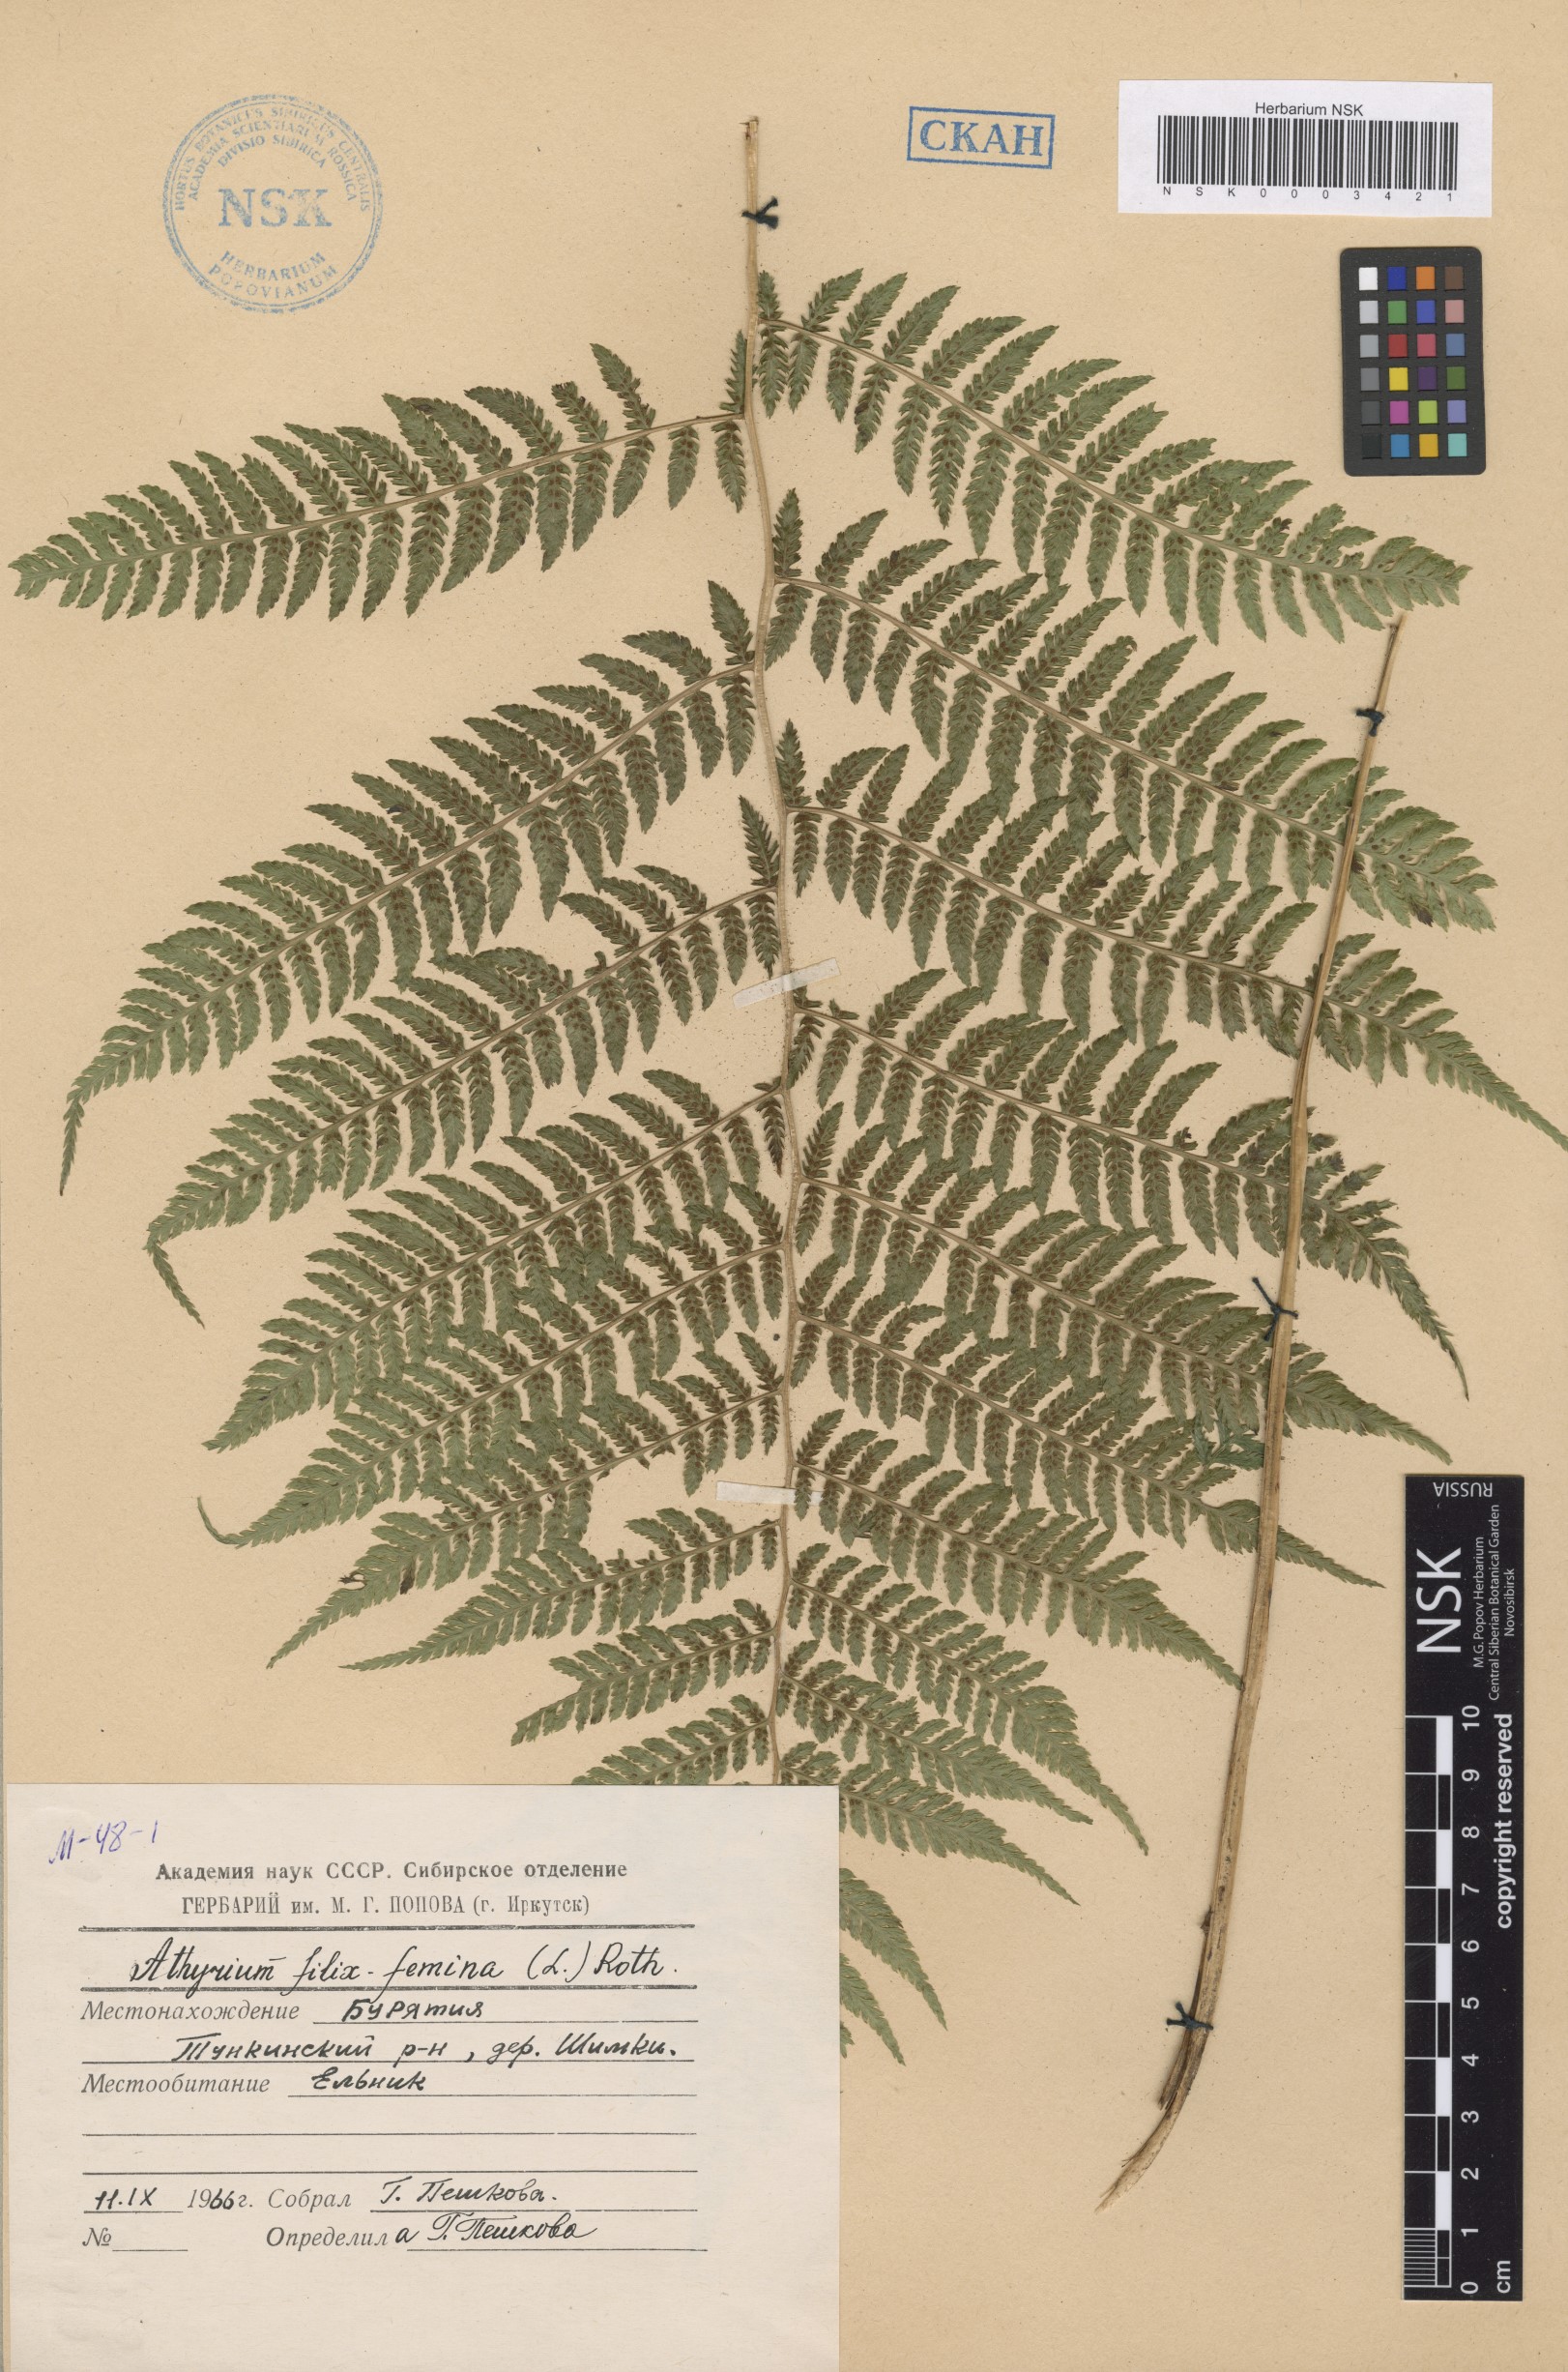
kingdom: Plantae
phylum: Tracheophyta
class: Polypodiopsida
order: Polypodiales
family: Athyriaceae
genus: Athyrium
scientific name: Athyrium filix-femina
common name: Lady fern
